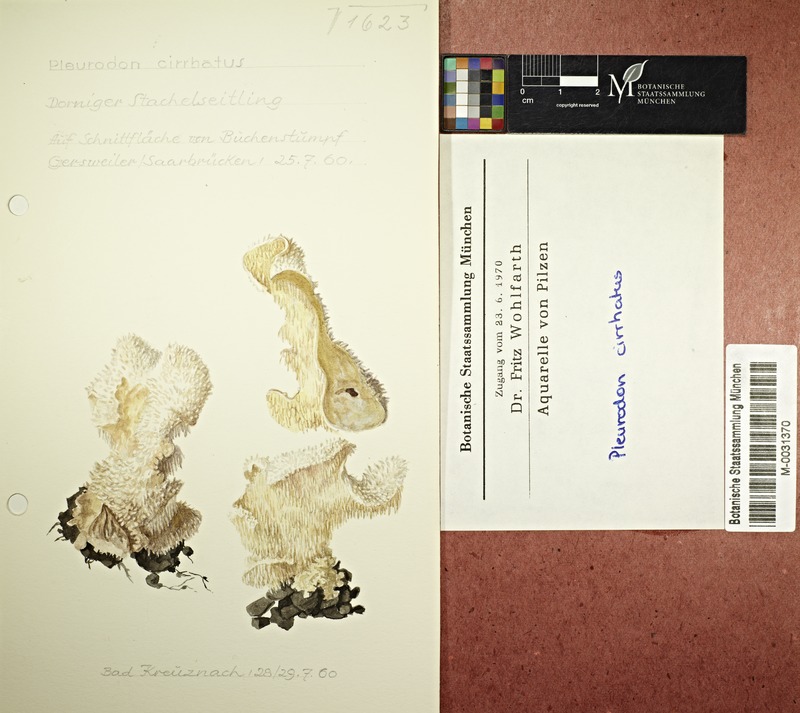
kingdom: Fungi
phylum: Basidiomycota
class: Agaricomycetes
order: Russulales
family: Hericiaceae
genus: Hericium
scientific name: Hericium cirrhatum
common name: Tiered tooth
